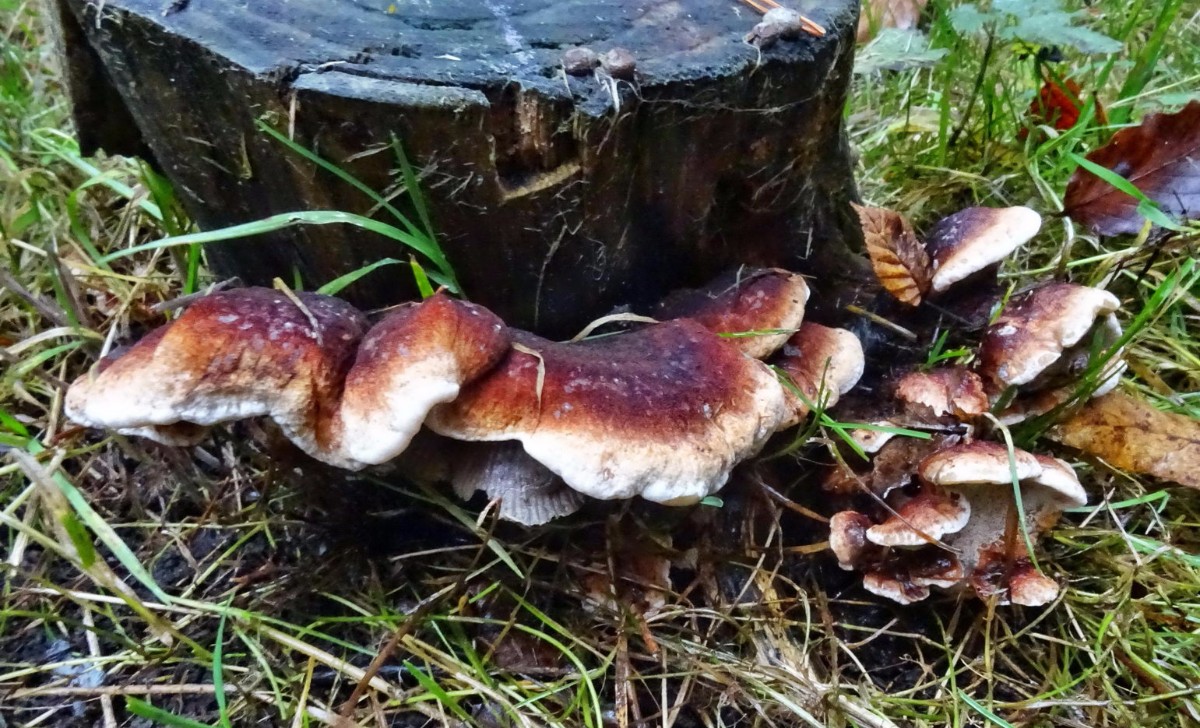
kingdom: Fungi
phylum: Basidiomycota
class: Agaricomycetes
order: Polyporales
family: Ischnodermataceae
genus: Ischnoderma
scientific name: Ischnoderma benzoinum
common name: gran-tjæreporesvamp
